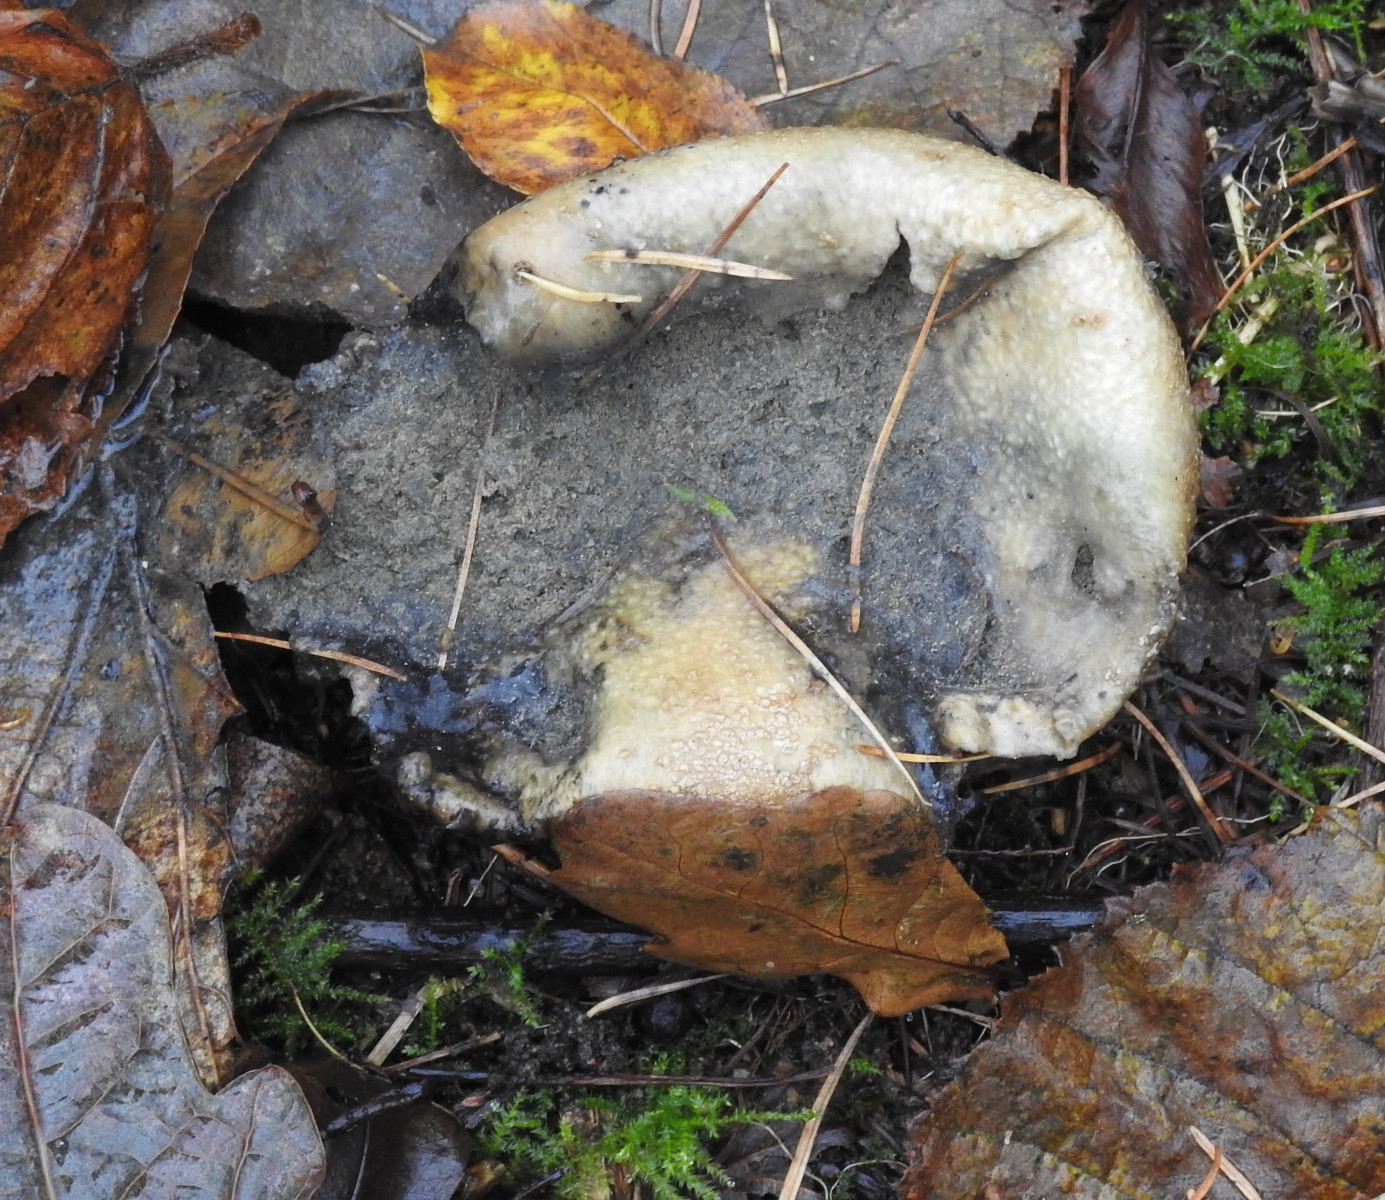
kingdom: Fungi
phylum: Basidiomycota
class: Agaricomycetes
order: Boletales
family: Sclerodermataceae
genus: Scleroderma
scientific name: Scleroderma citrinum
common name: almindelig bruskbold
